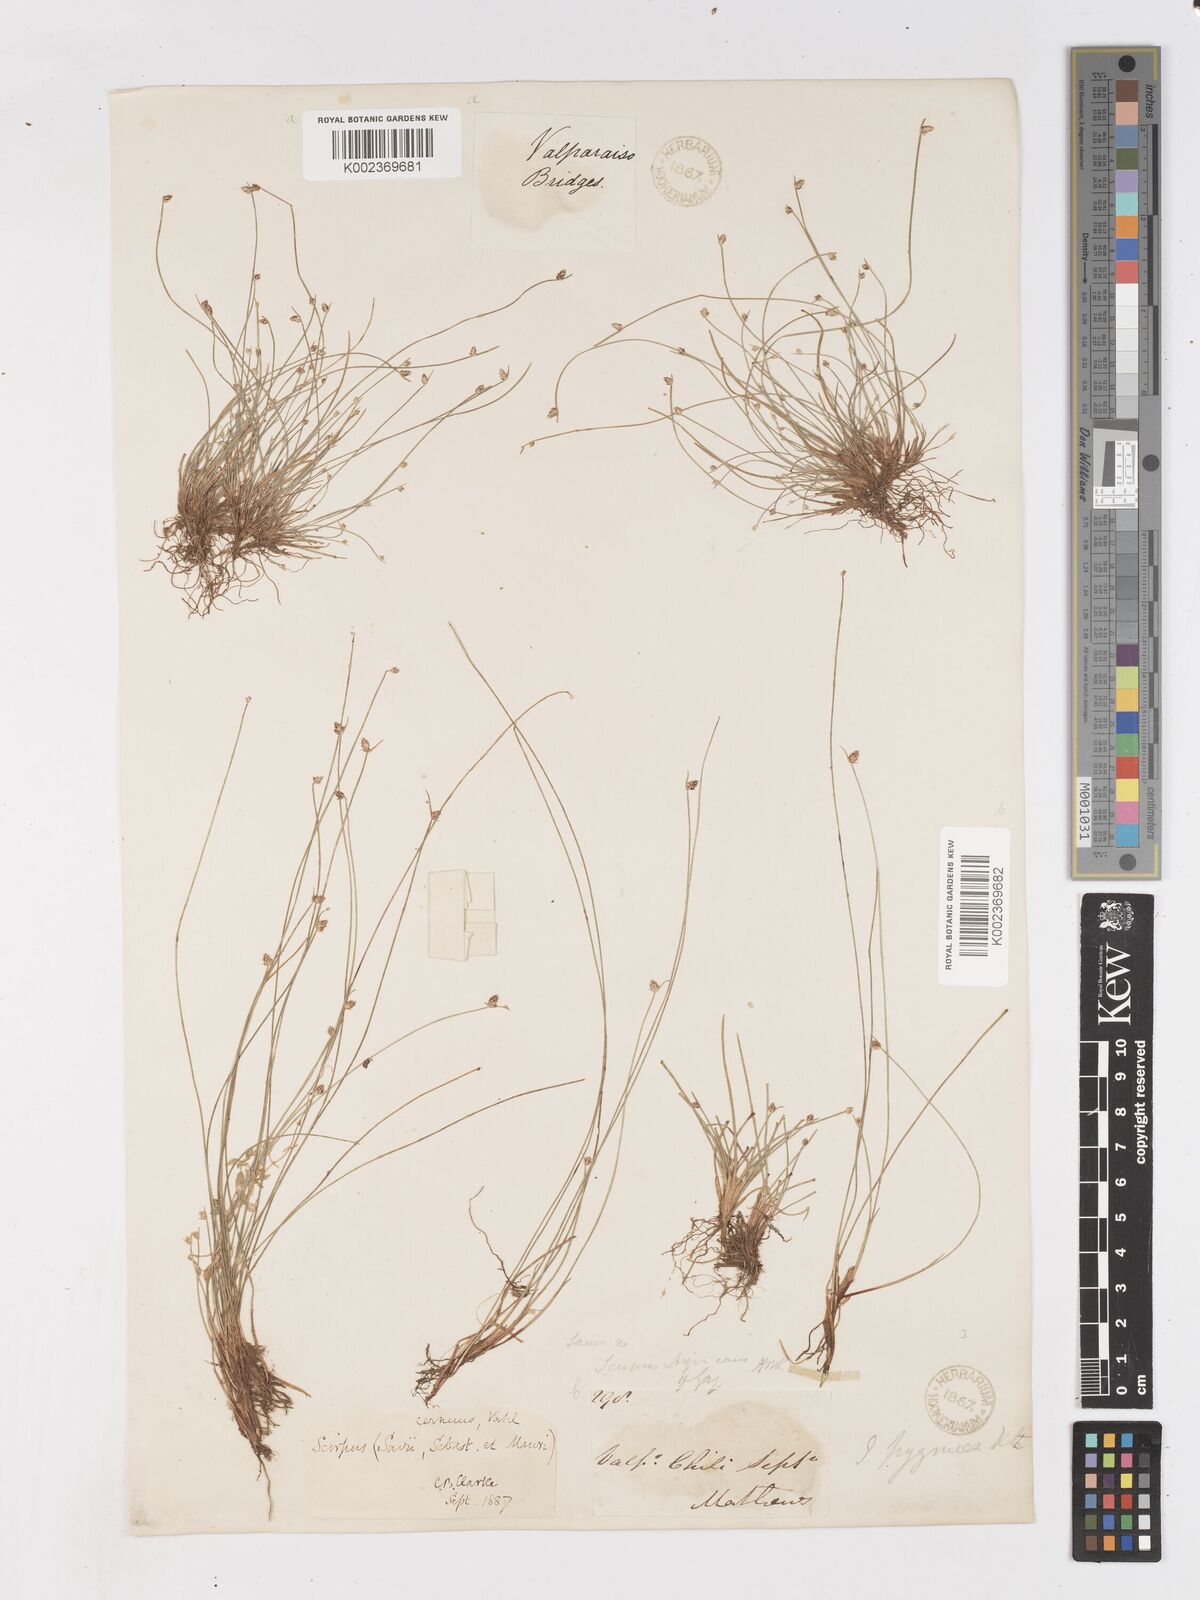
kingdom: Plantae
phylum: Tracheophyta
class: Liliopsida
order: Poales
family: Cyperaceae
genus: Isolepis
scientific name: Isolepis cernua
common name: Slender club-rush
